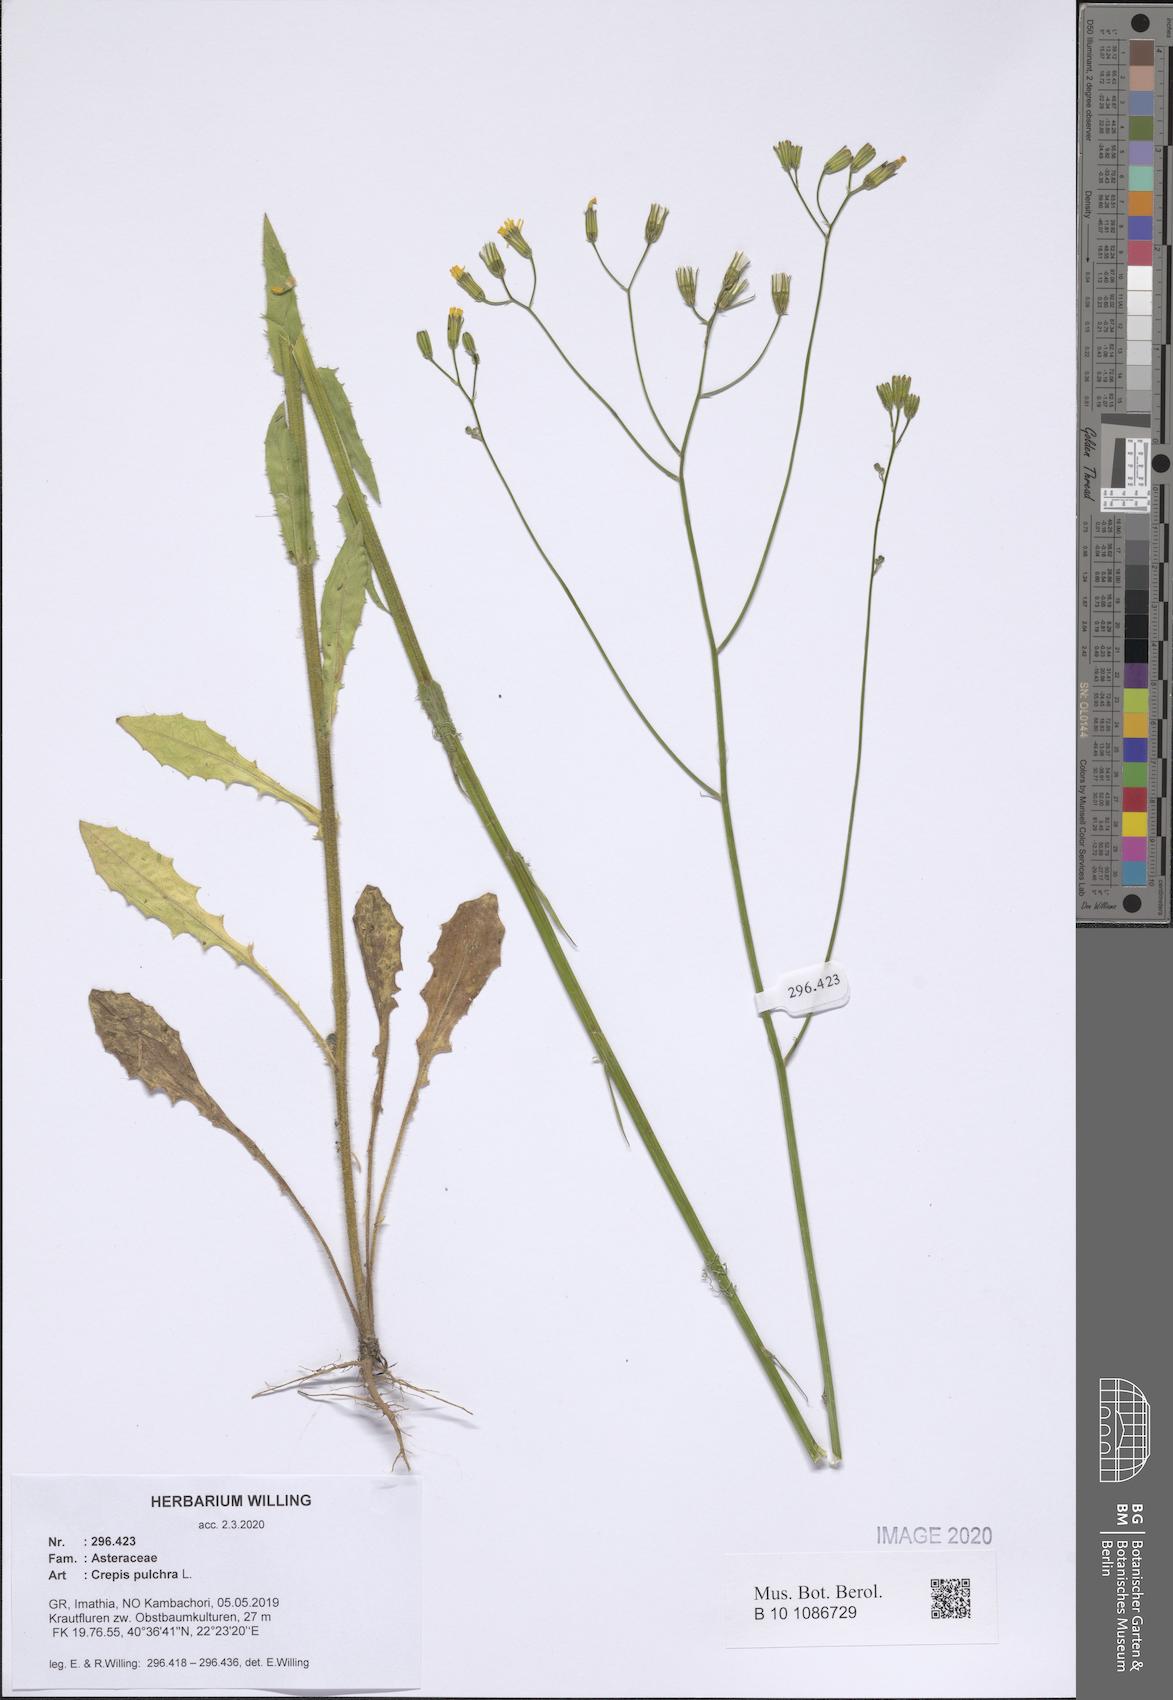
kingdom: Plantae
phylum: Tracheophyta
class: Magnoliopsida
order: Asterales
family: Asteraceae
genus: Crepis
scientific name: Crepis pulchra
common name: Hawk's-beard
